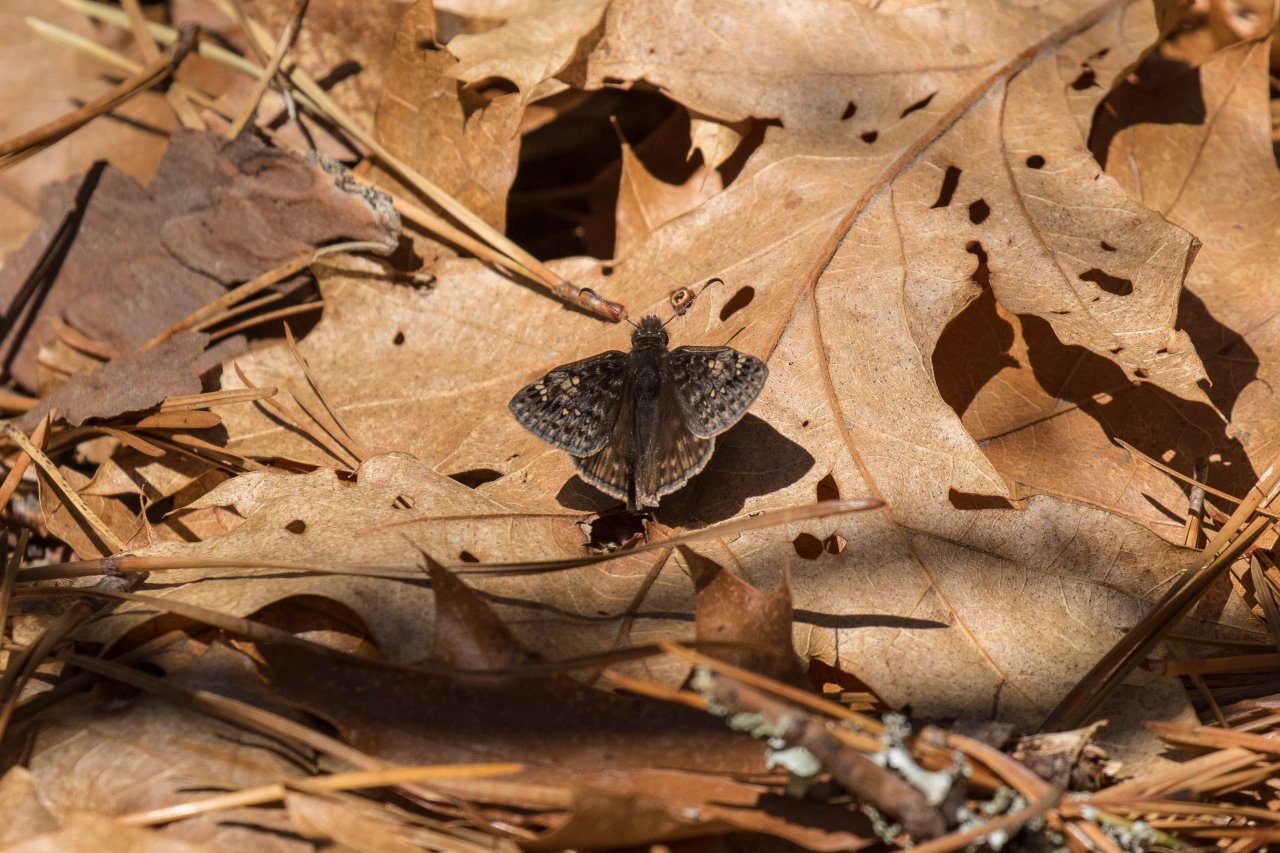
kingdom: Animalia
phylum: Arthropoda
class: Insecta
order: Lepidoptera
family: Hesperiidae
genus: Gesta
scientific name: Gesta
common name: Juvenal's Duskywing
